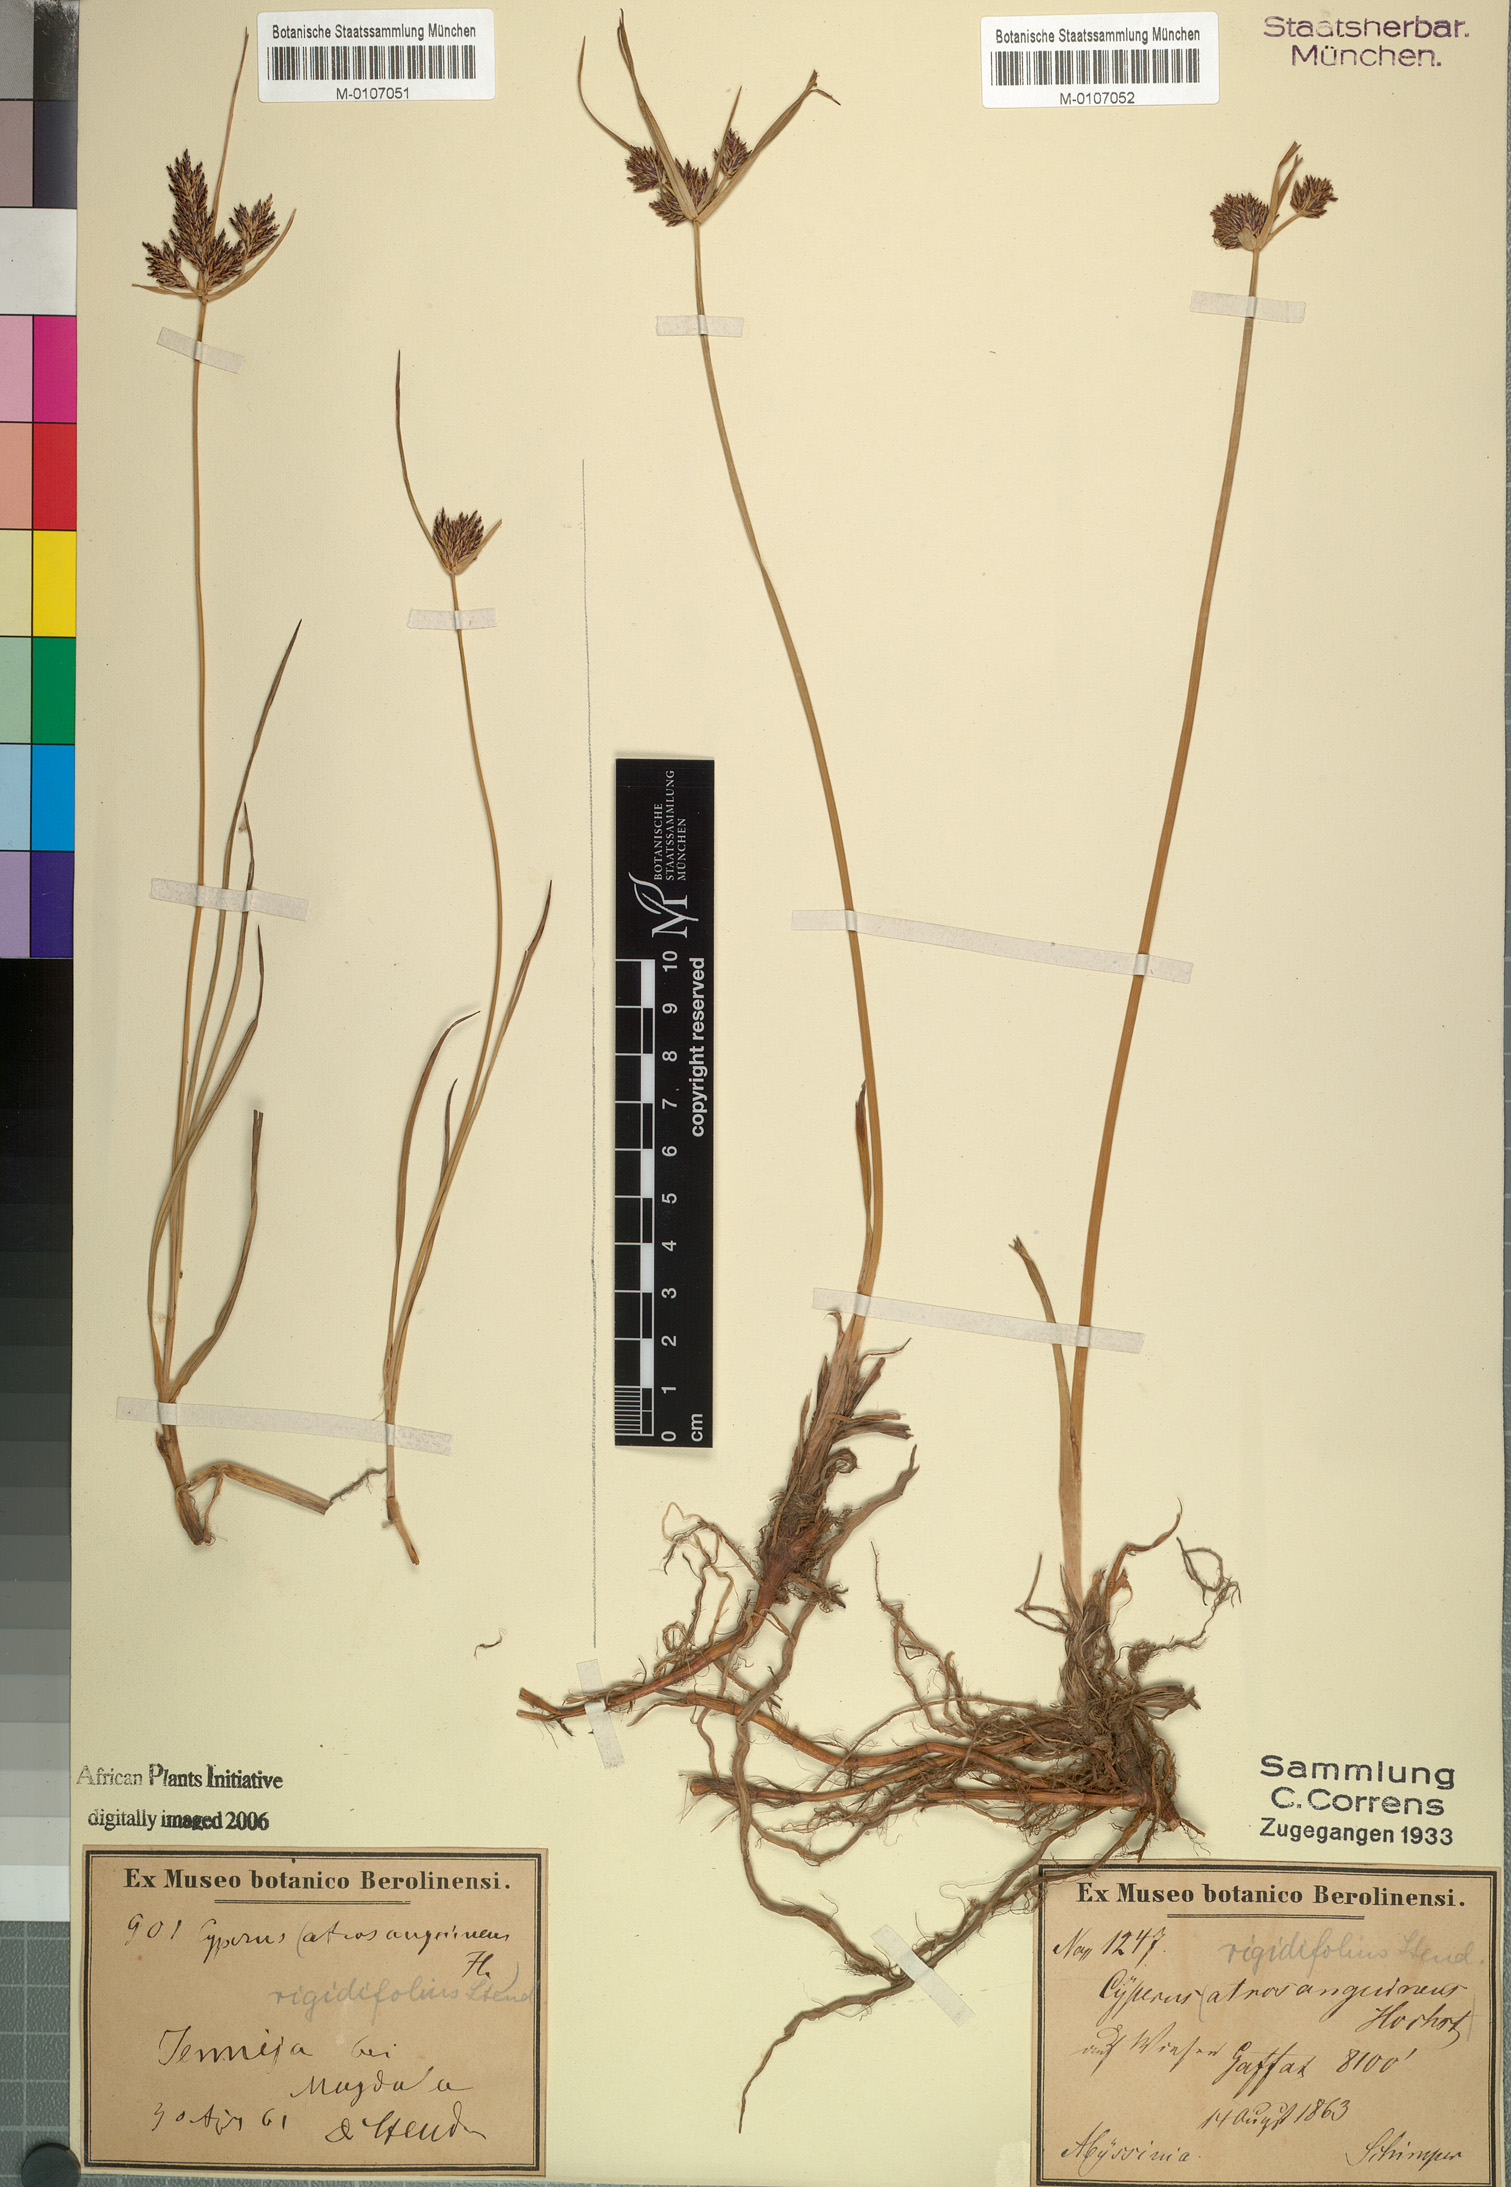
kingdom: Plantae
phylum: Tracheophyta
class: Liliopsida
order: Poales
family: Cyperaceae
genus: Cyperus
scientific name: Cyperus rigidifolius
